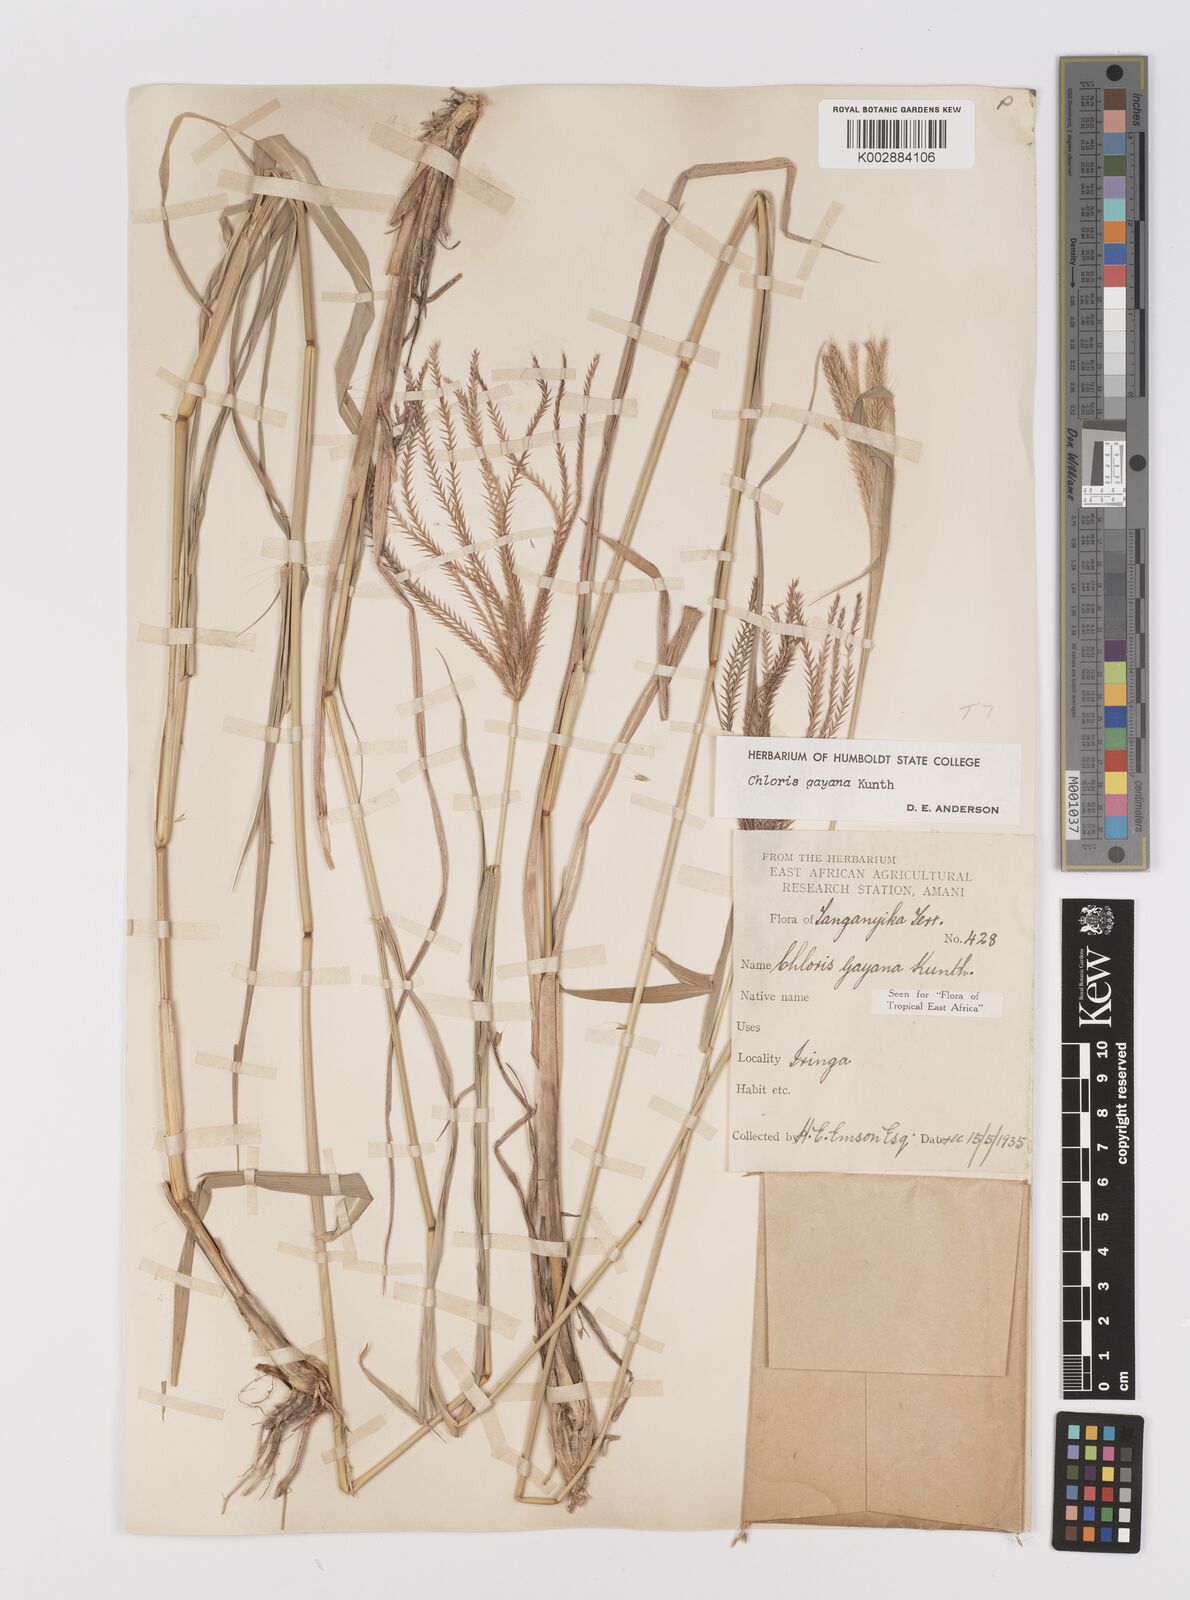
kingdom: Plantae
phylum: Tracheophyta
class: Liliopsida
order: Poales
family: Poaceae
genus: Chloris
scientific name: Chloris gayana
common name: Rhodes grass
